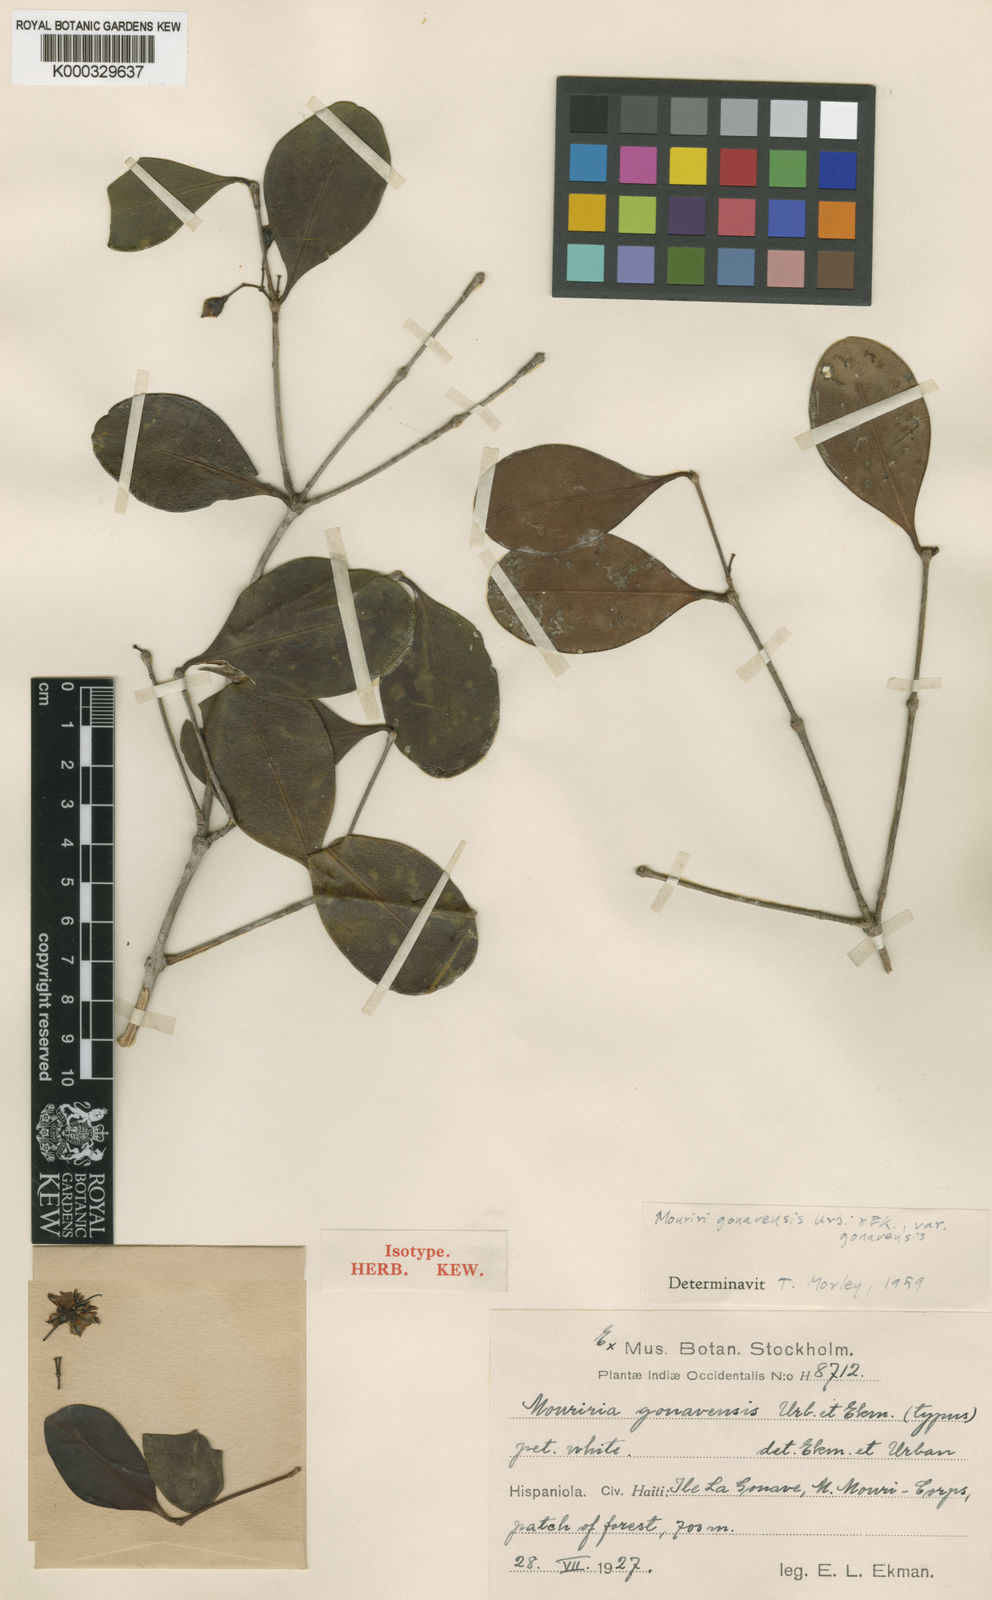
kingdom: Plantae
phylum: Tracheophyta
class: Magnoliopsida
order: Myrtales
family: Melastomataceae
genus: Mouriri
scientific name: Mouriri gonavensis
